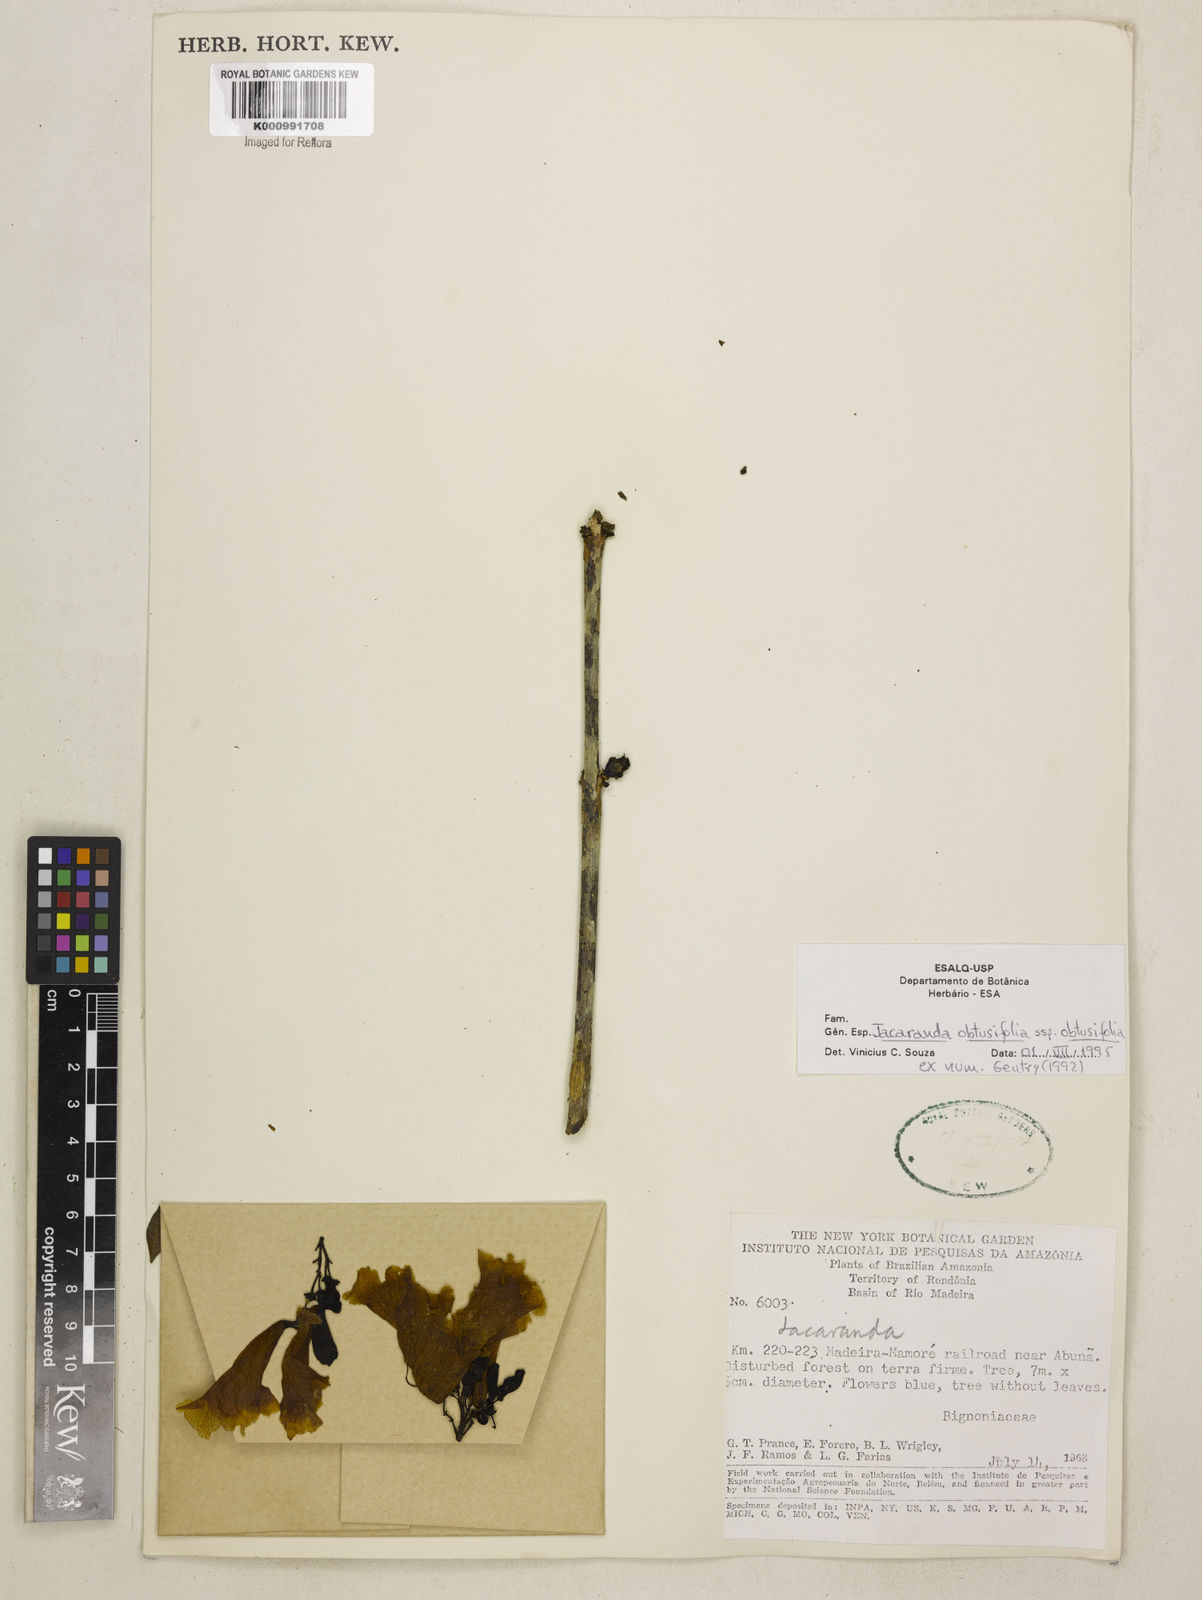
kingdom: Plantae
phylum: Tracheophyta
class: Magnoliopsida
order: Lamiales
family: Bignoniaceae
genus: Jacaranda
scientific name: Jacaranda
